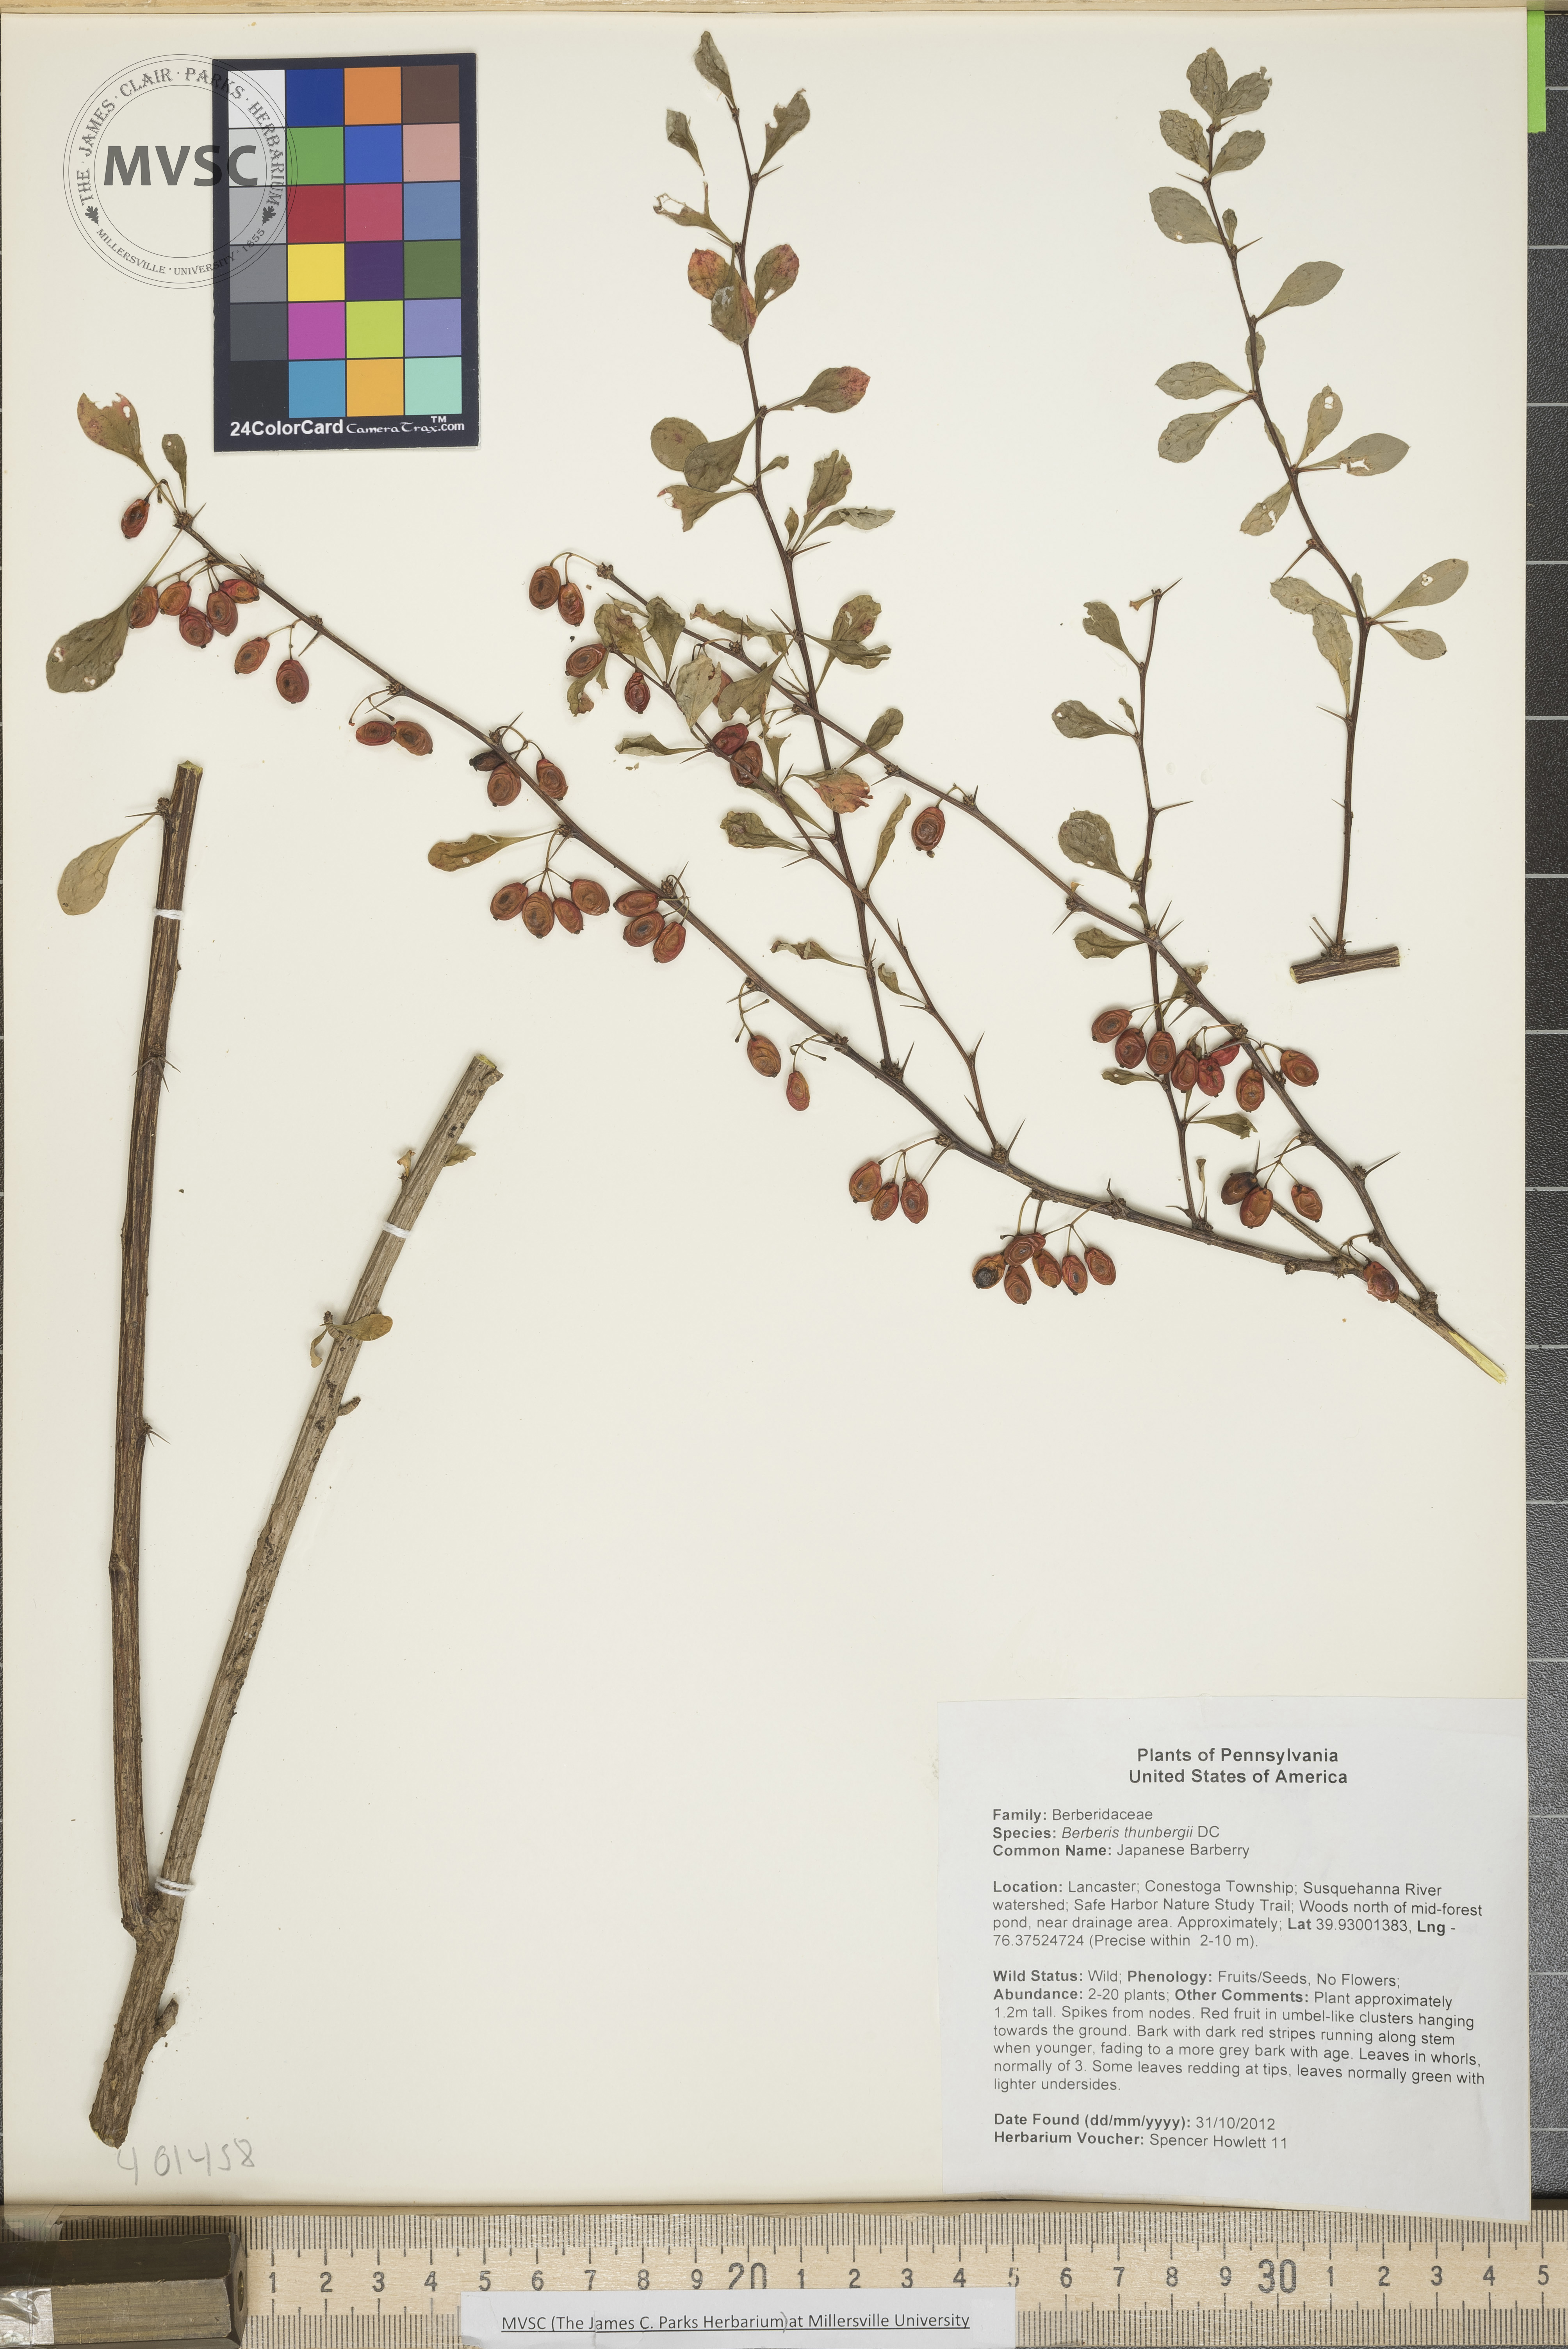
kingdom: Plantae
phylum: Tracheophyta
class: Magnoliopsida
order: Ranunculales
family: Berberidaceae
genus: Berberis
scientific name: Berberis thunbergii
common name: Japanese Barberry
